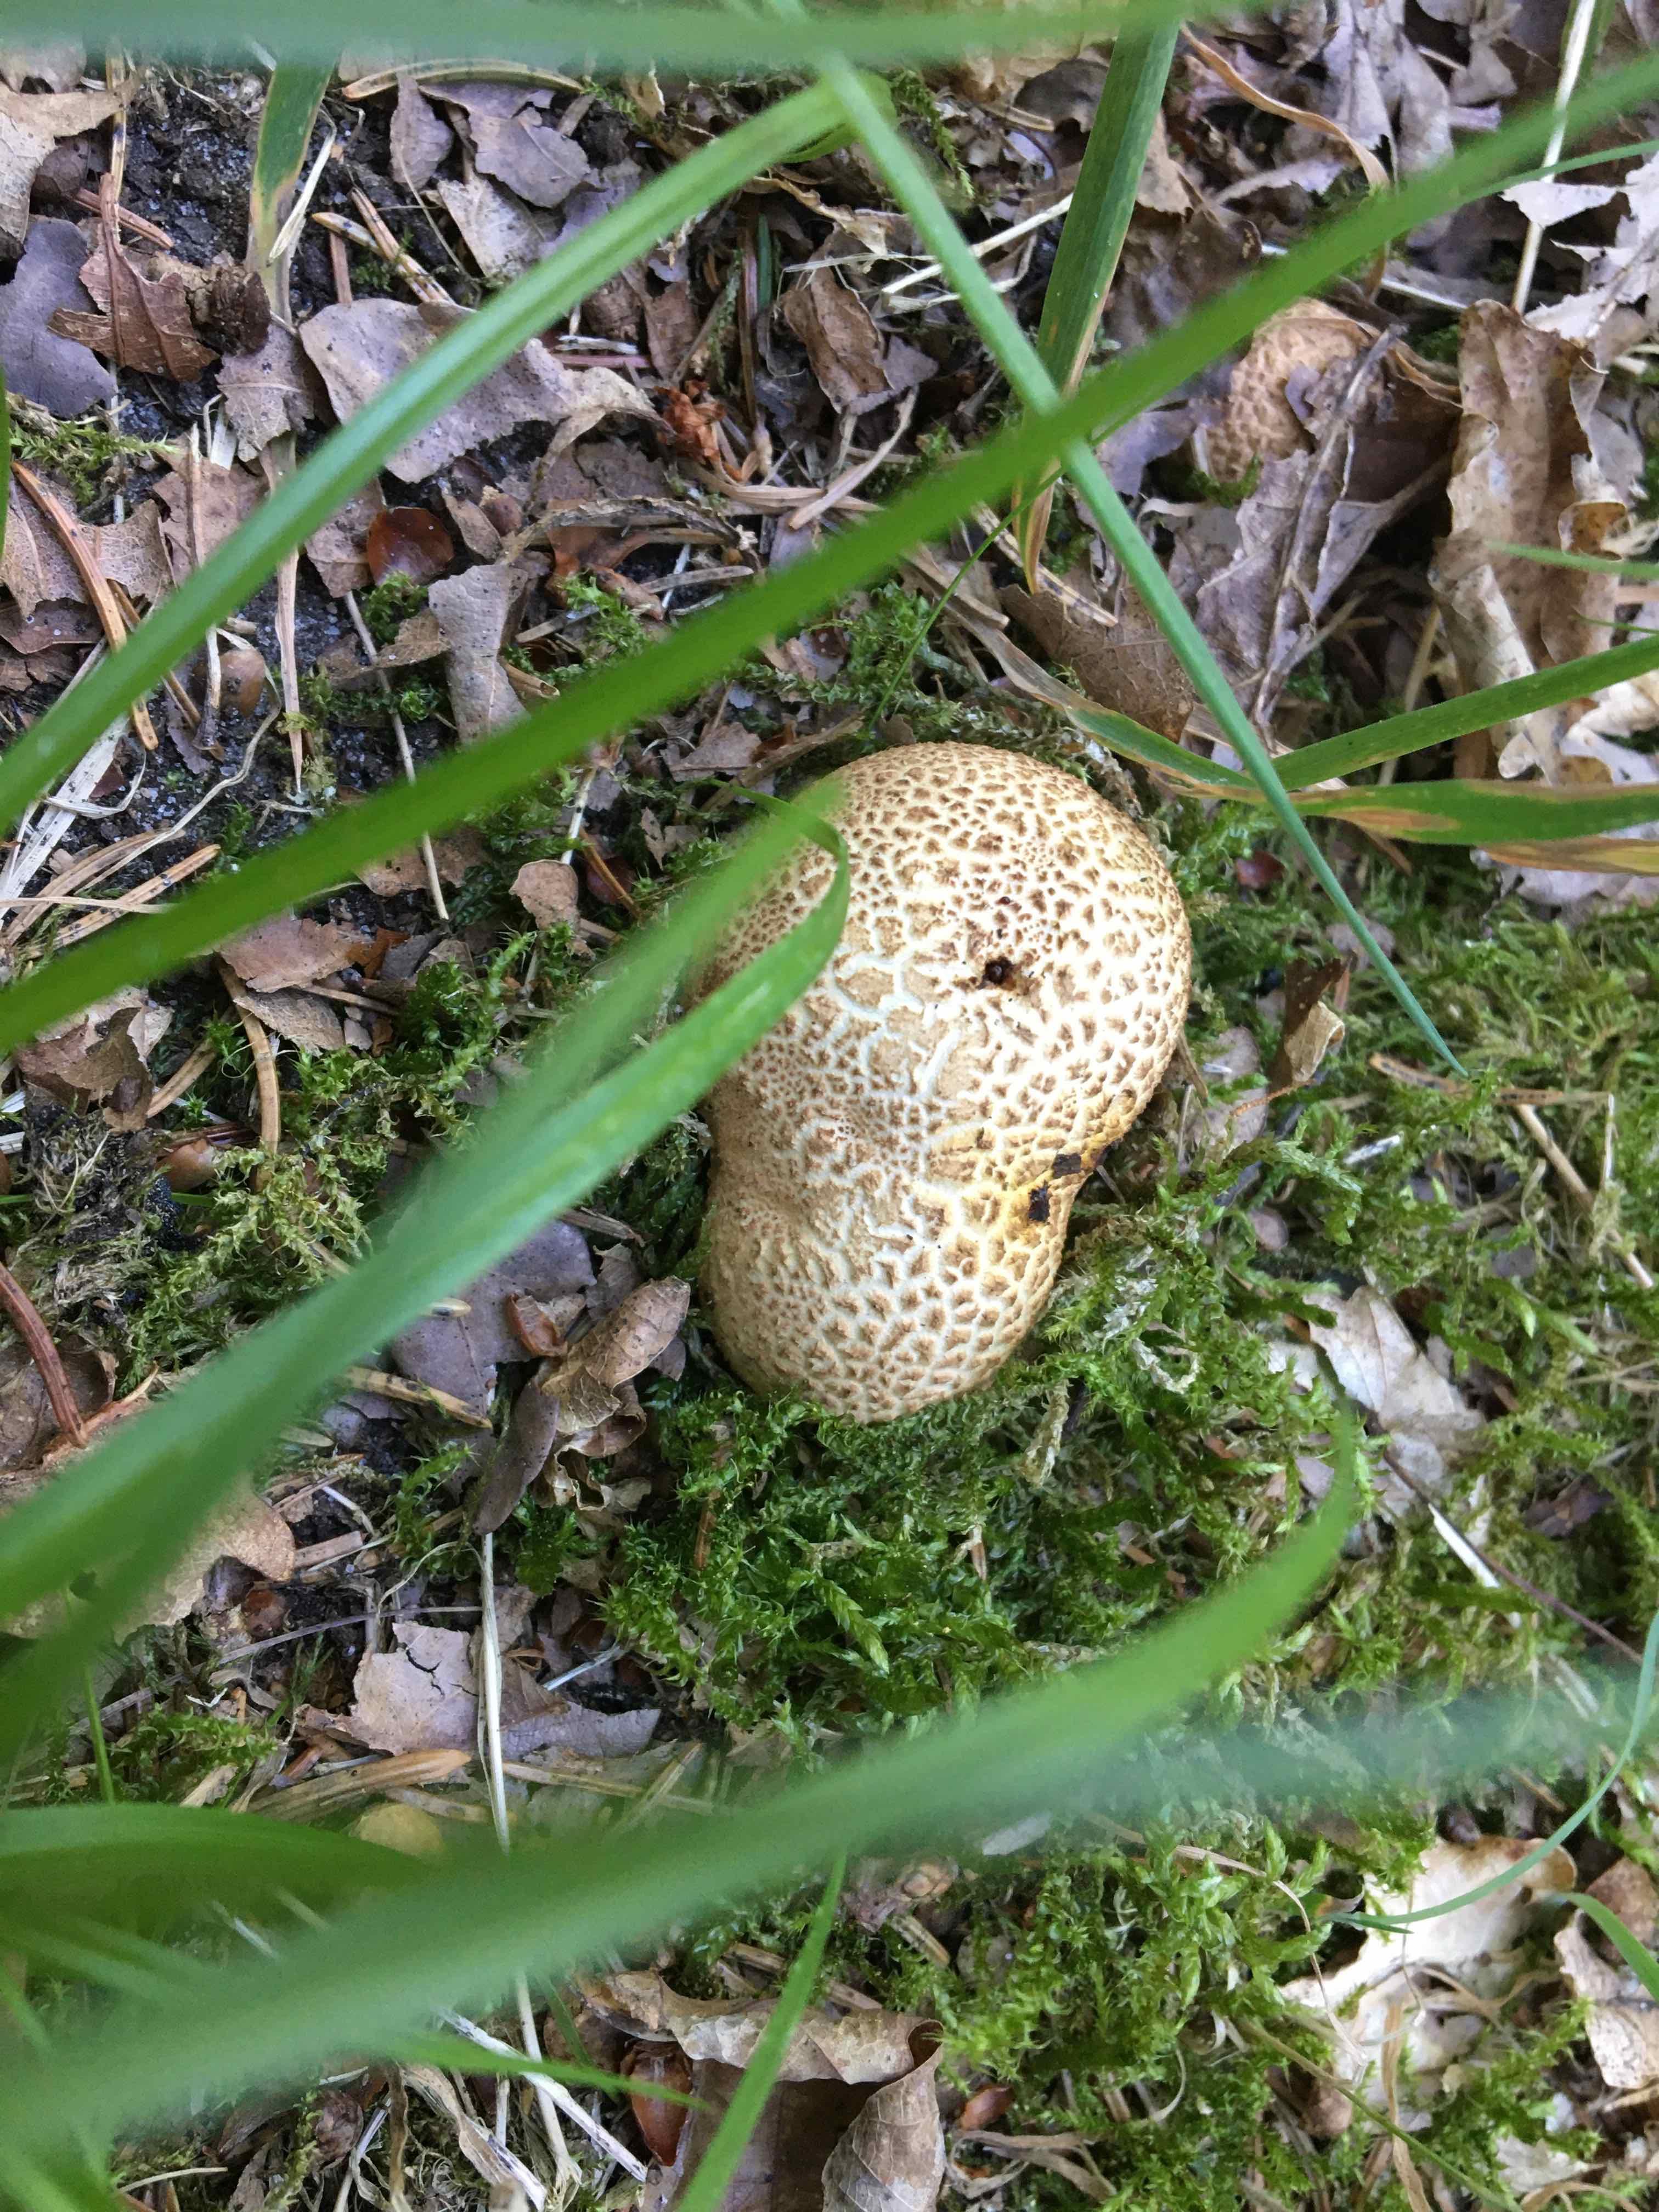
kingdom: Fungi
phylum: Basidiomycota
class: Agaricomycetes
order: Boletales
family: Sclerodermataceae
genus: Scleroderma
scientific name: Scleroderma citrinum
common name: almindelig bruskbold
